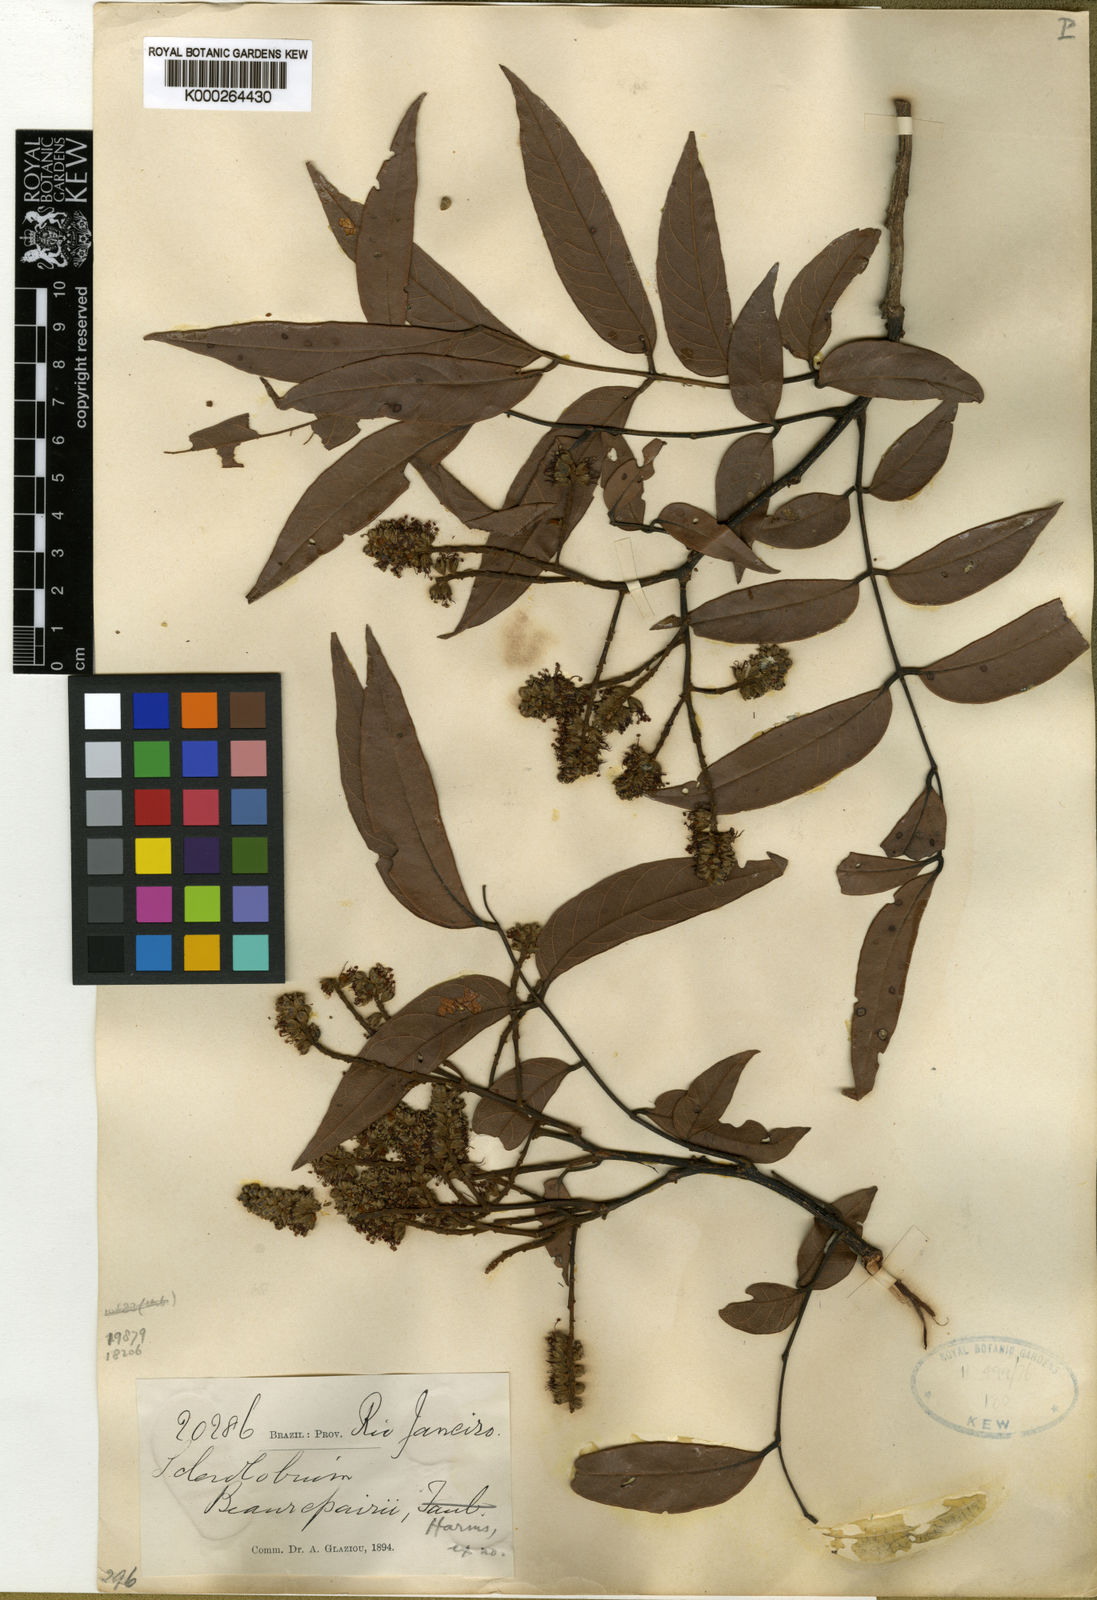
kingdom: Plantae
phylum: Tracheophyta
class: Magnoliopsida
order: Fabales
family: Fabaceae
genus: Tachigali
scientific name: Tachigali beaurepairei
